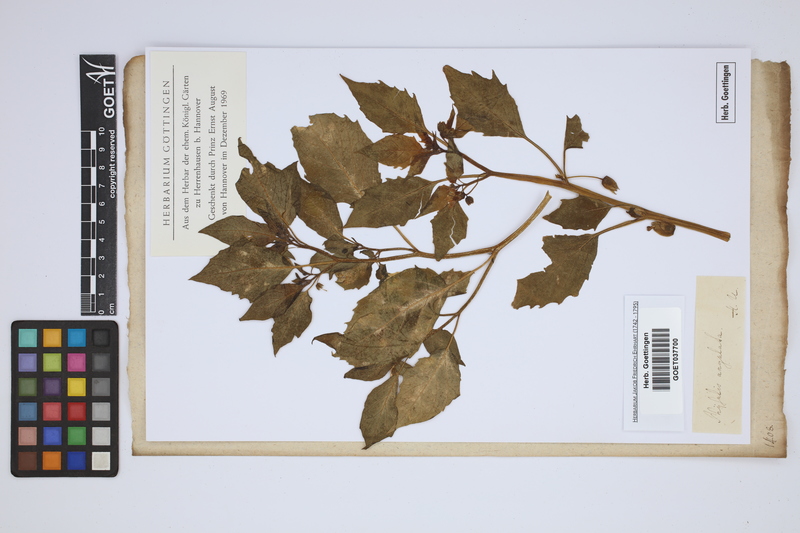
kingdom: Plantae
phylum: Tracheophyta
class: Magnoliopsida
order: Solanales
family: Solanaceae
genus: Physalis
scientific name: Physalis angulata
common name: Angular winter-cherry
